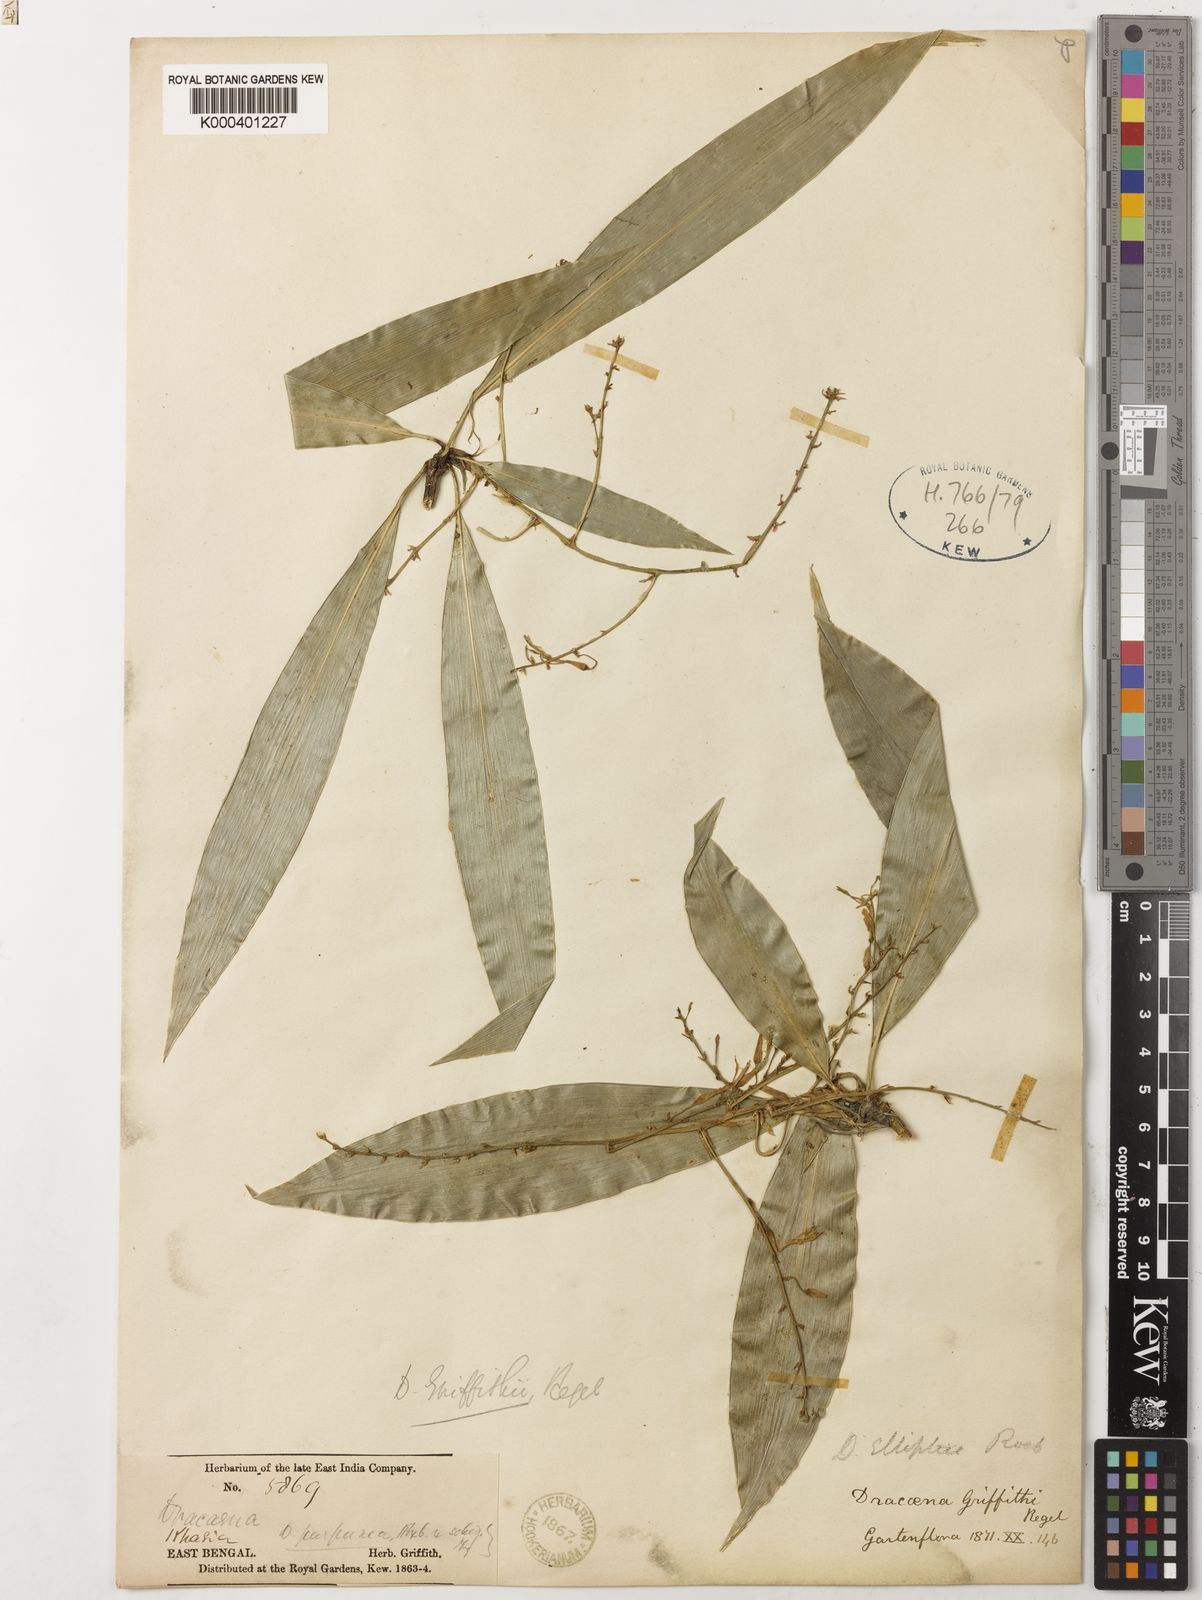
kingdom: Plantae
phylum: Tracheophyta
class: Liliopsida
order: Asparagales
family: Asparagaceae
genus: Dracaena
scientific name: Dracaena griffithii
